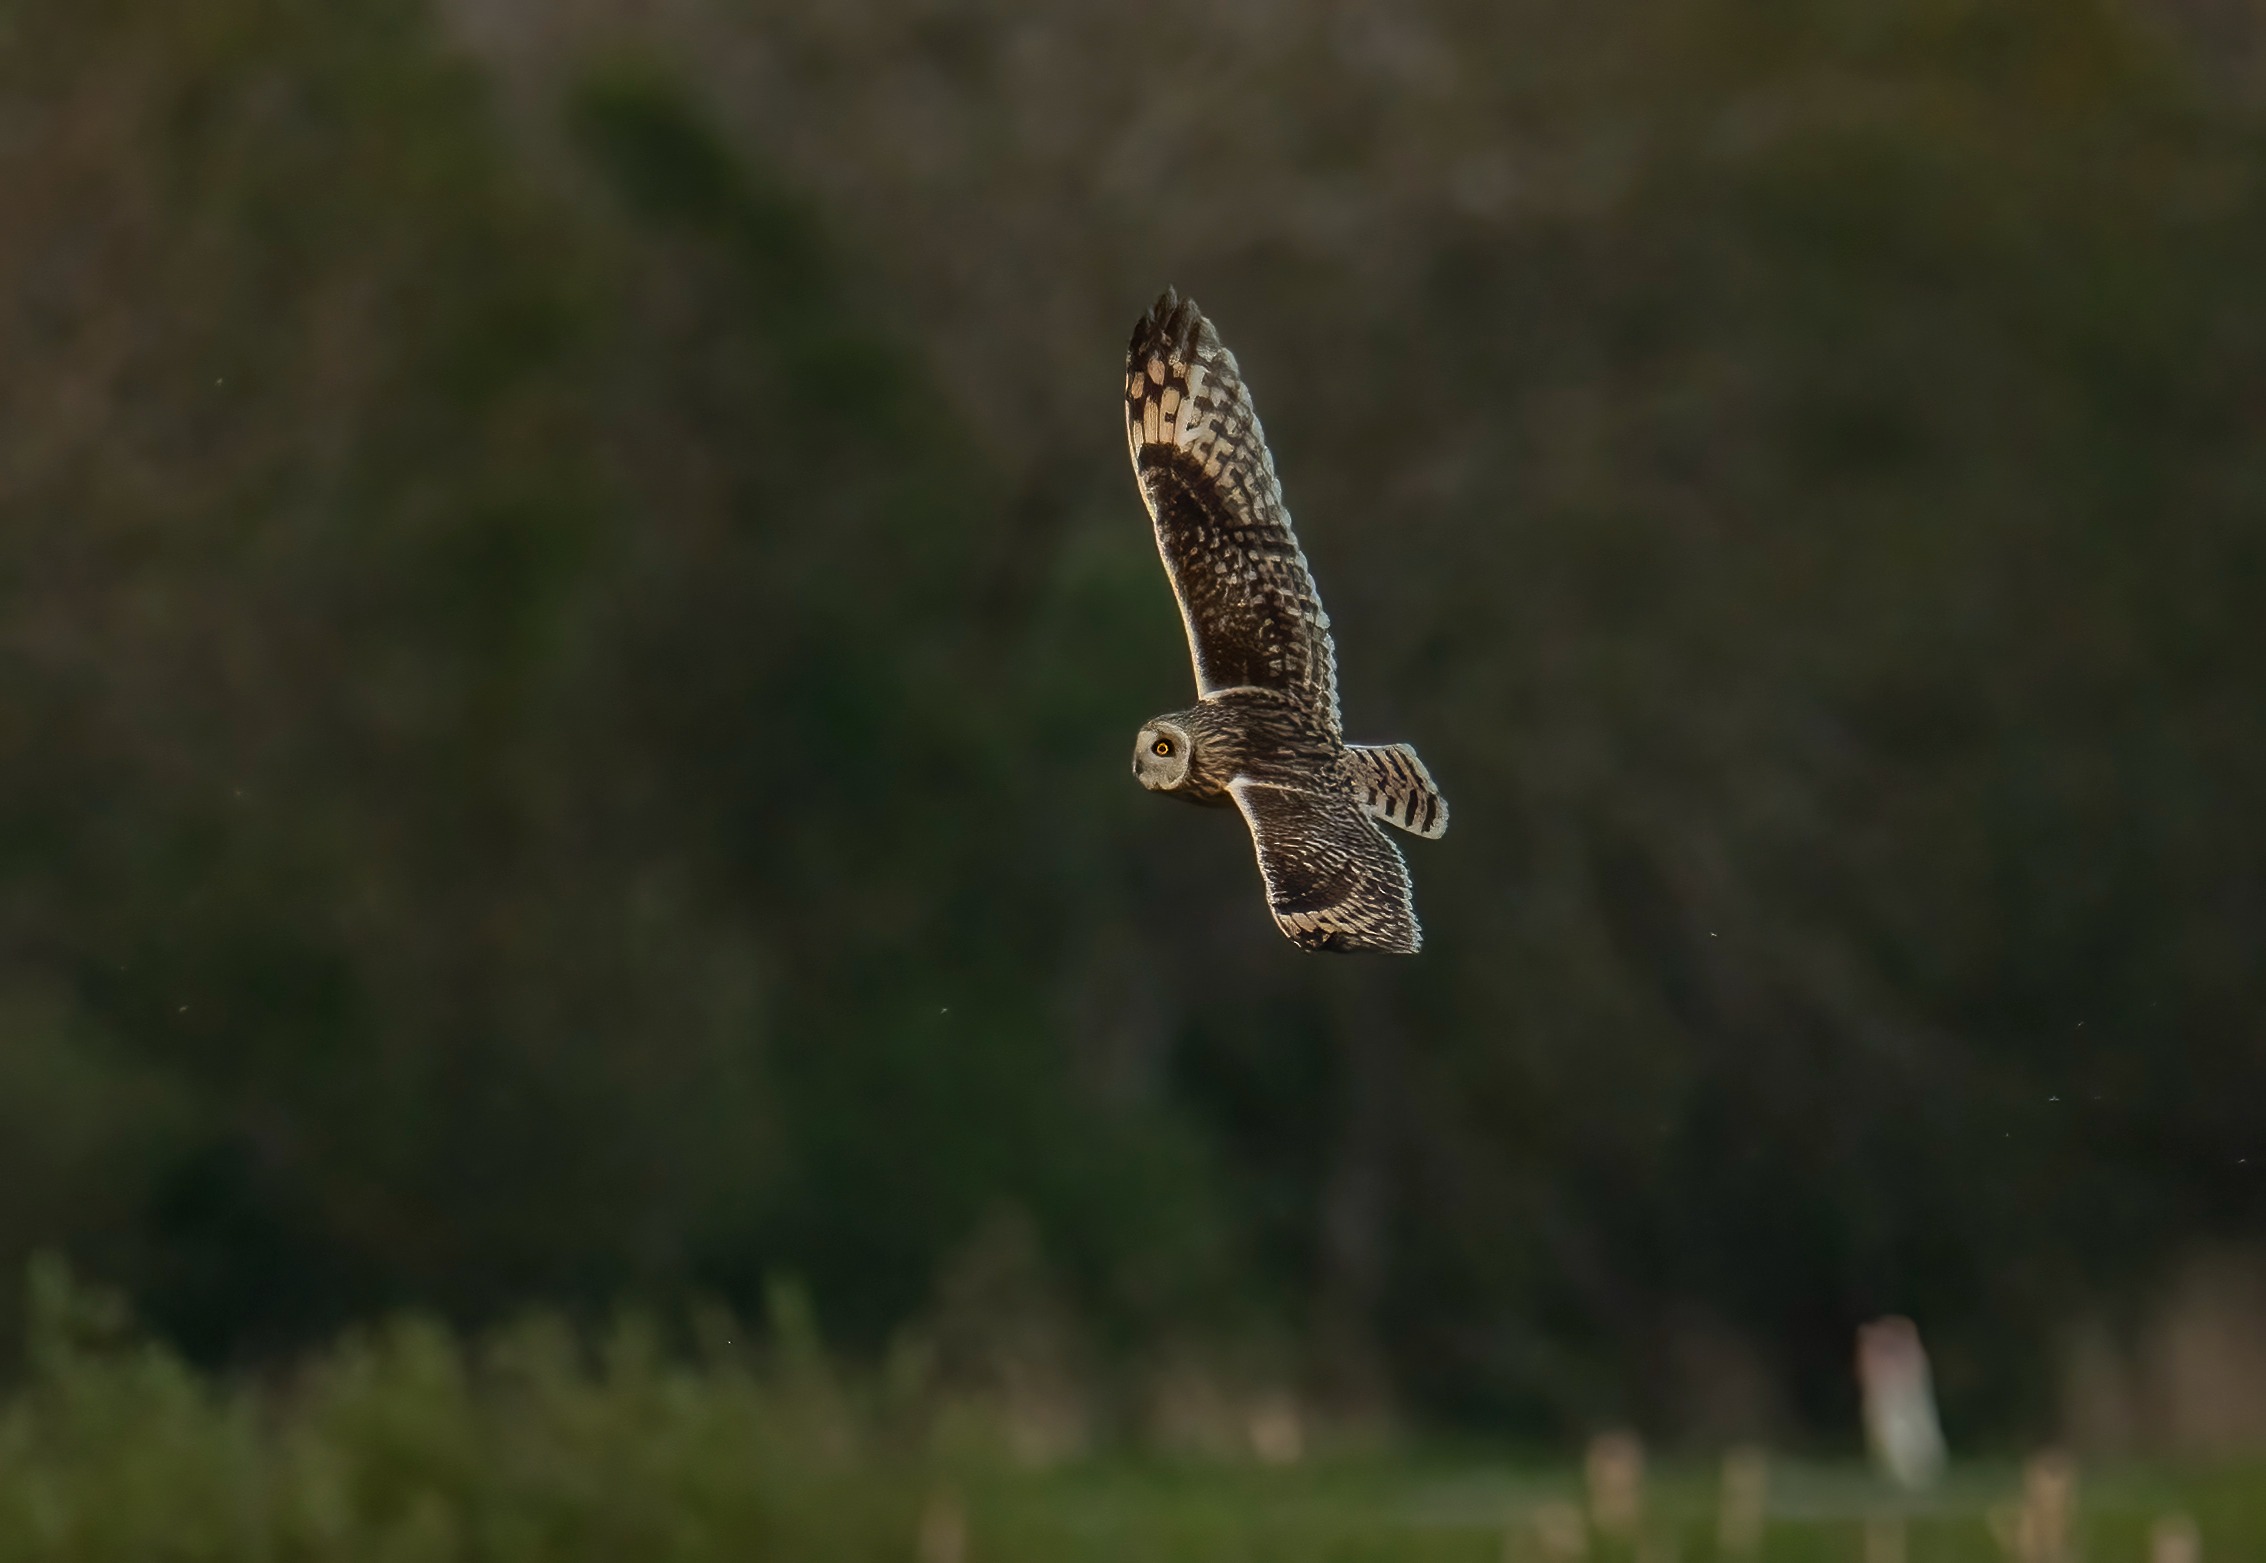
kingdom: Animalia
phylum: Chordata
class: Aves
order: Strigiformes
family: Strigidae
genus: Asio
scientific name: Asio flammeus
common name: Mosehornugle
